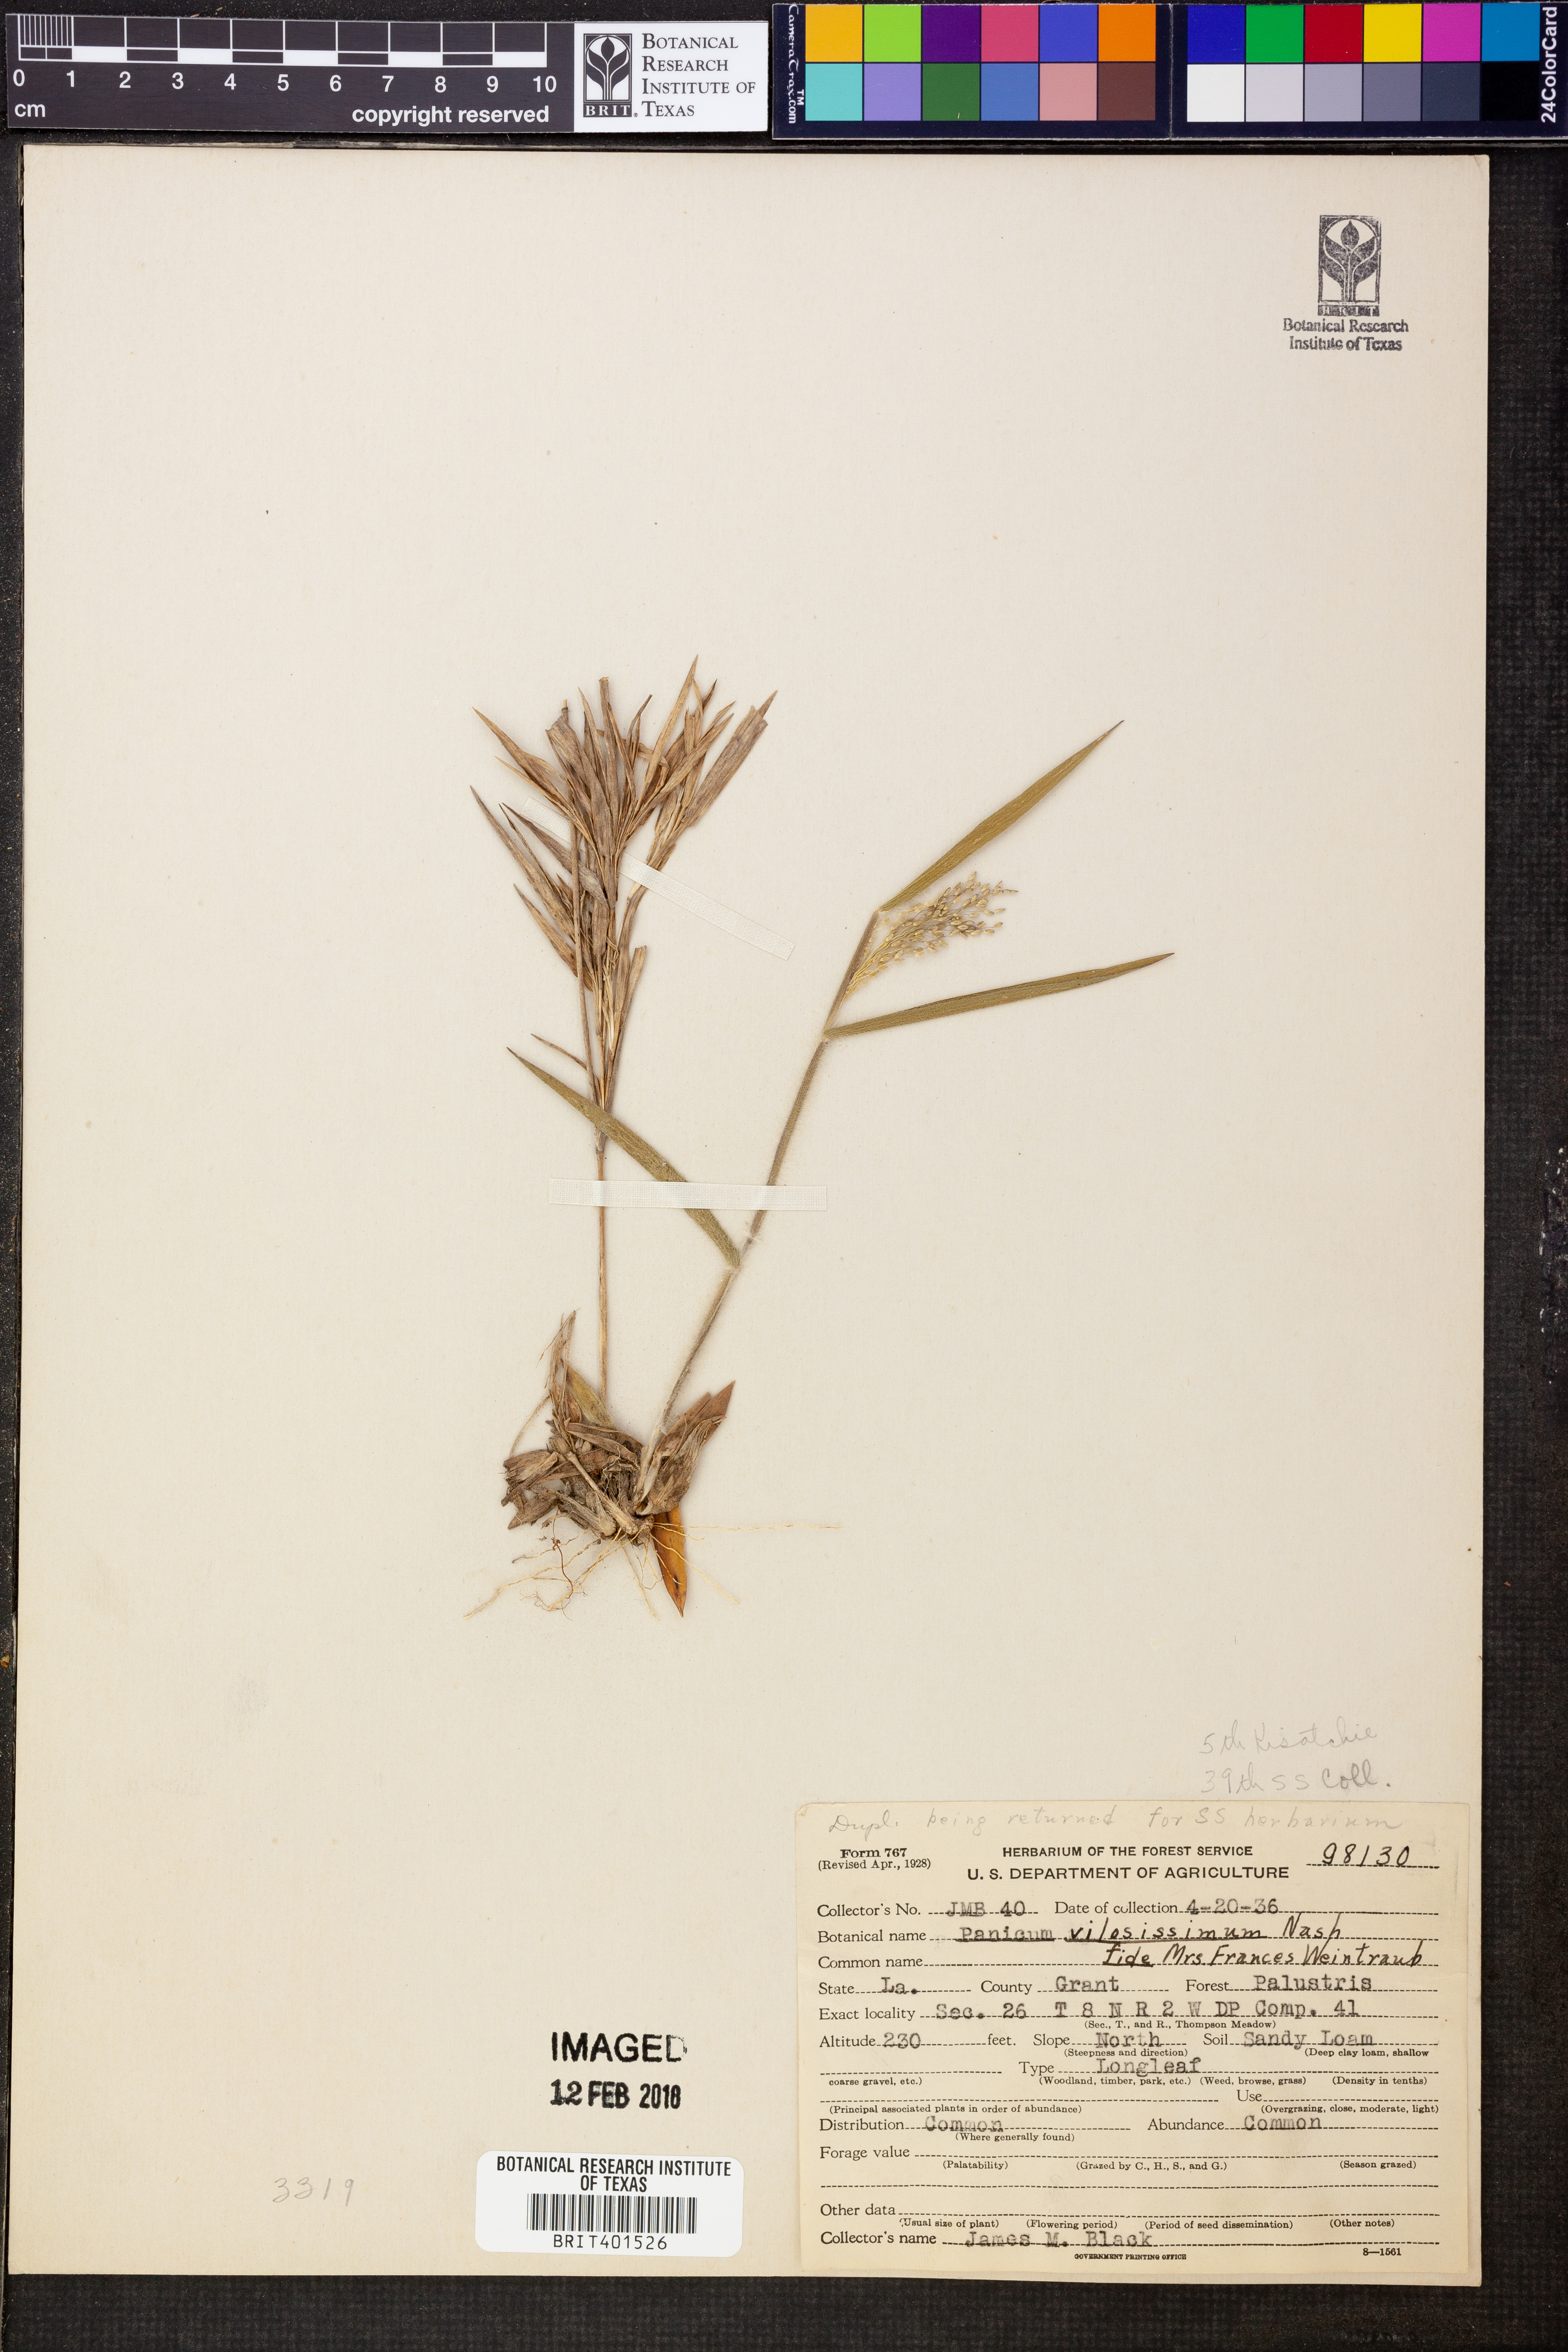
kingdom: Plantae
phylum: Tracheophyta
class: Liliopsida
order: Poales
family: Poaceae
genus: Dichanthelium
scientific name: Dichanthelium villosissimum
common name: White-haired panicgrass
